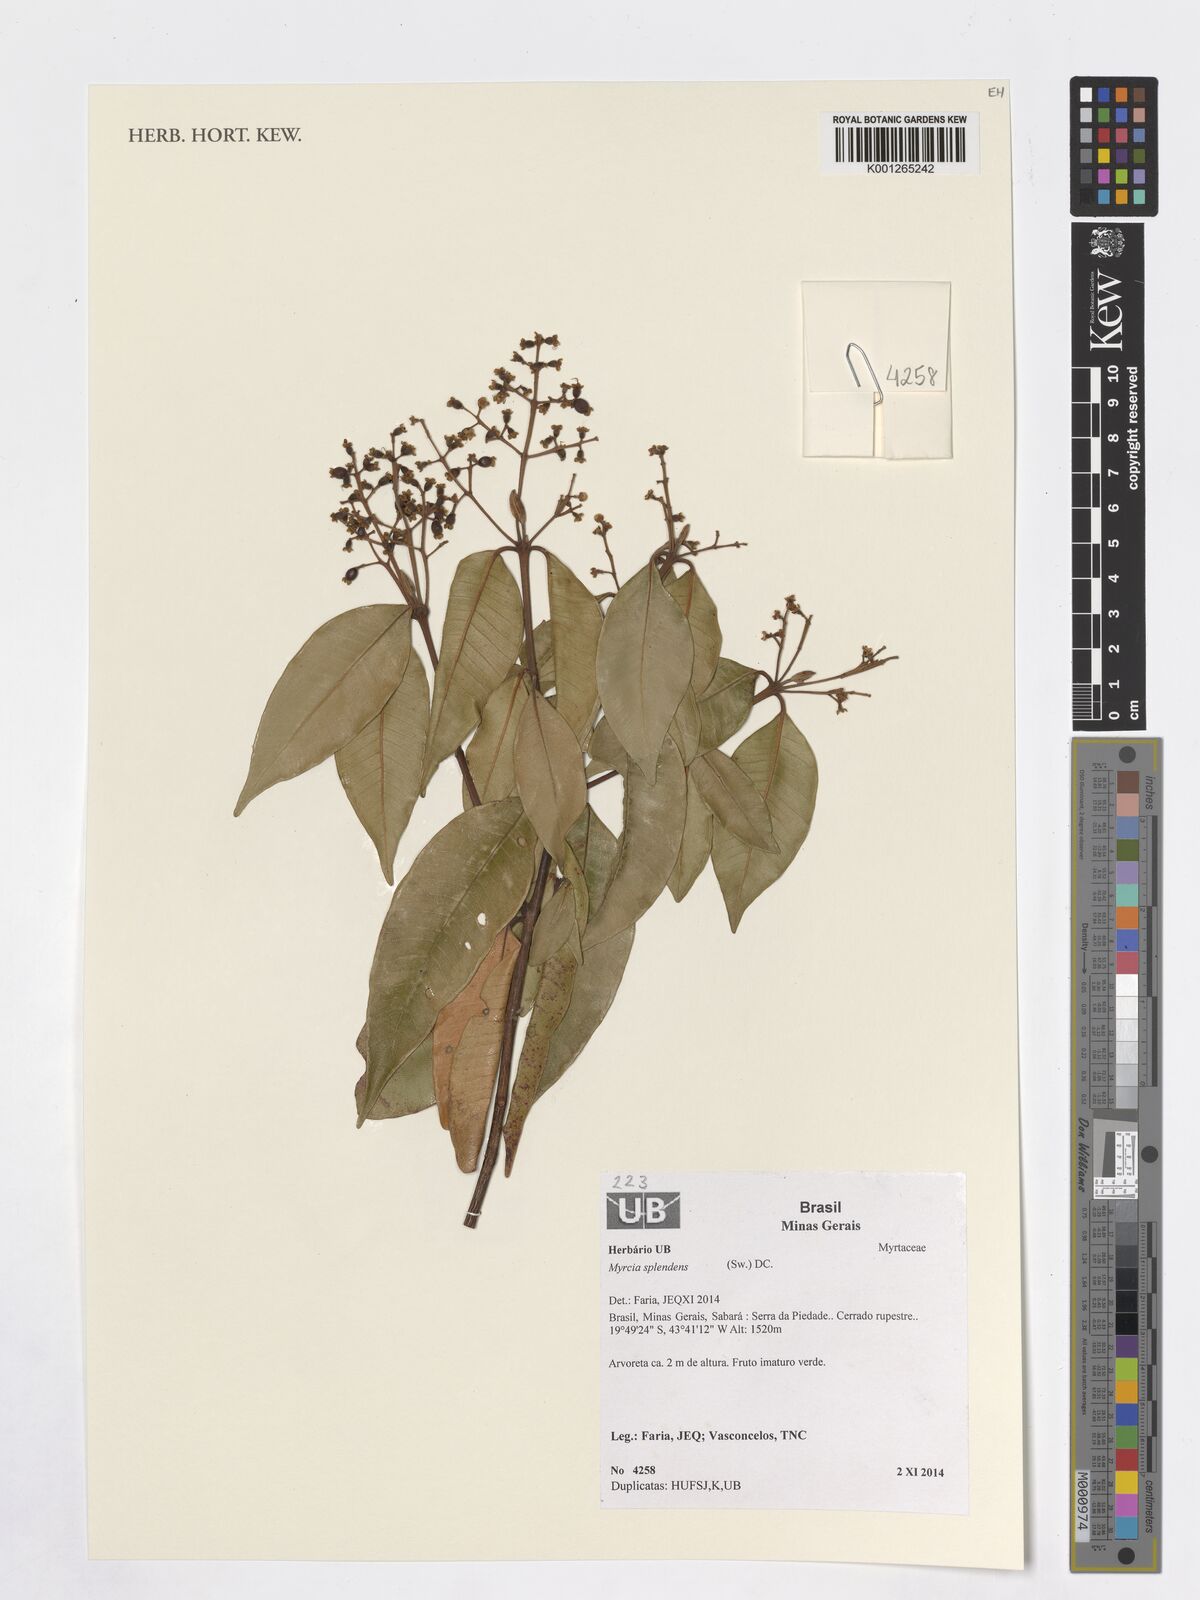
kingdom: Plantae
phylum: Tracheophyta
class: Magnoliopsida
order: Myrtales
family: Myrtaceae
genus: Myrcia
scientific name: Myrcia splendens
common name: Surinam cherry
